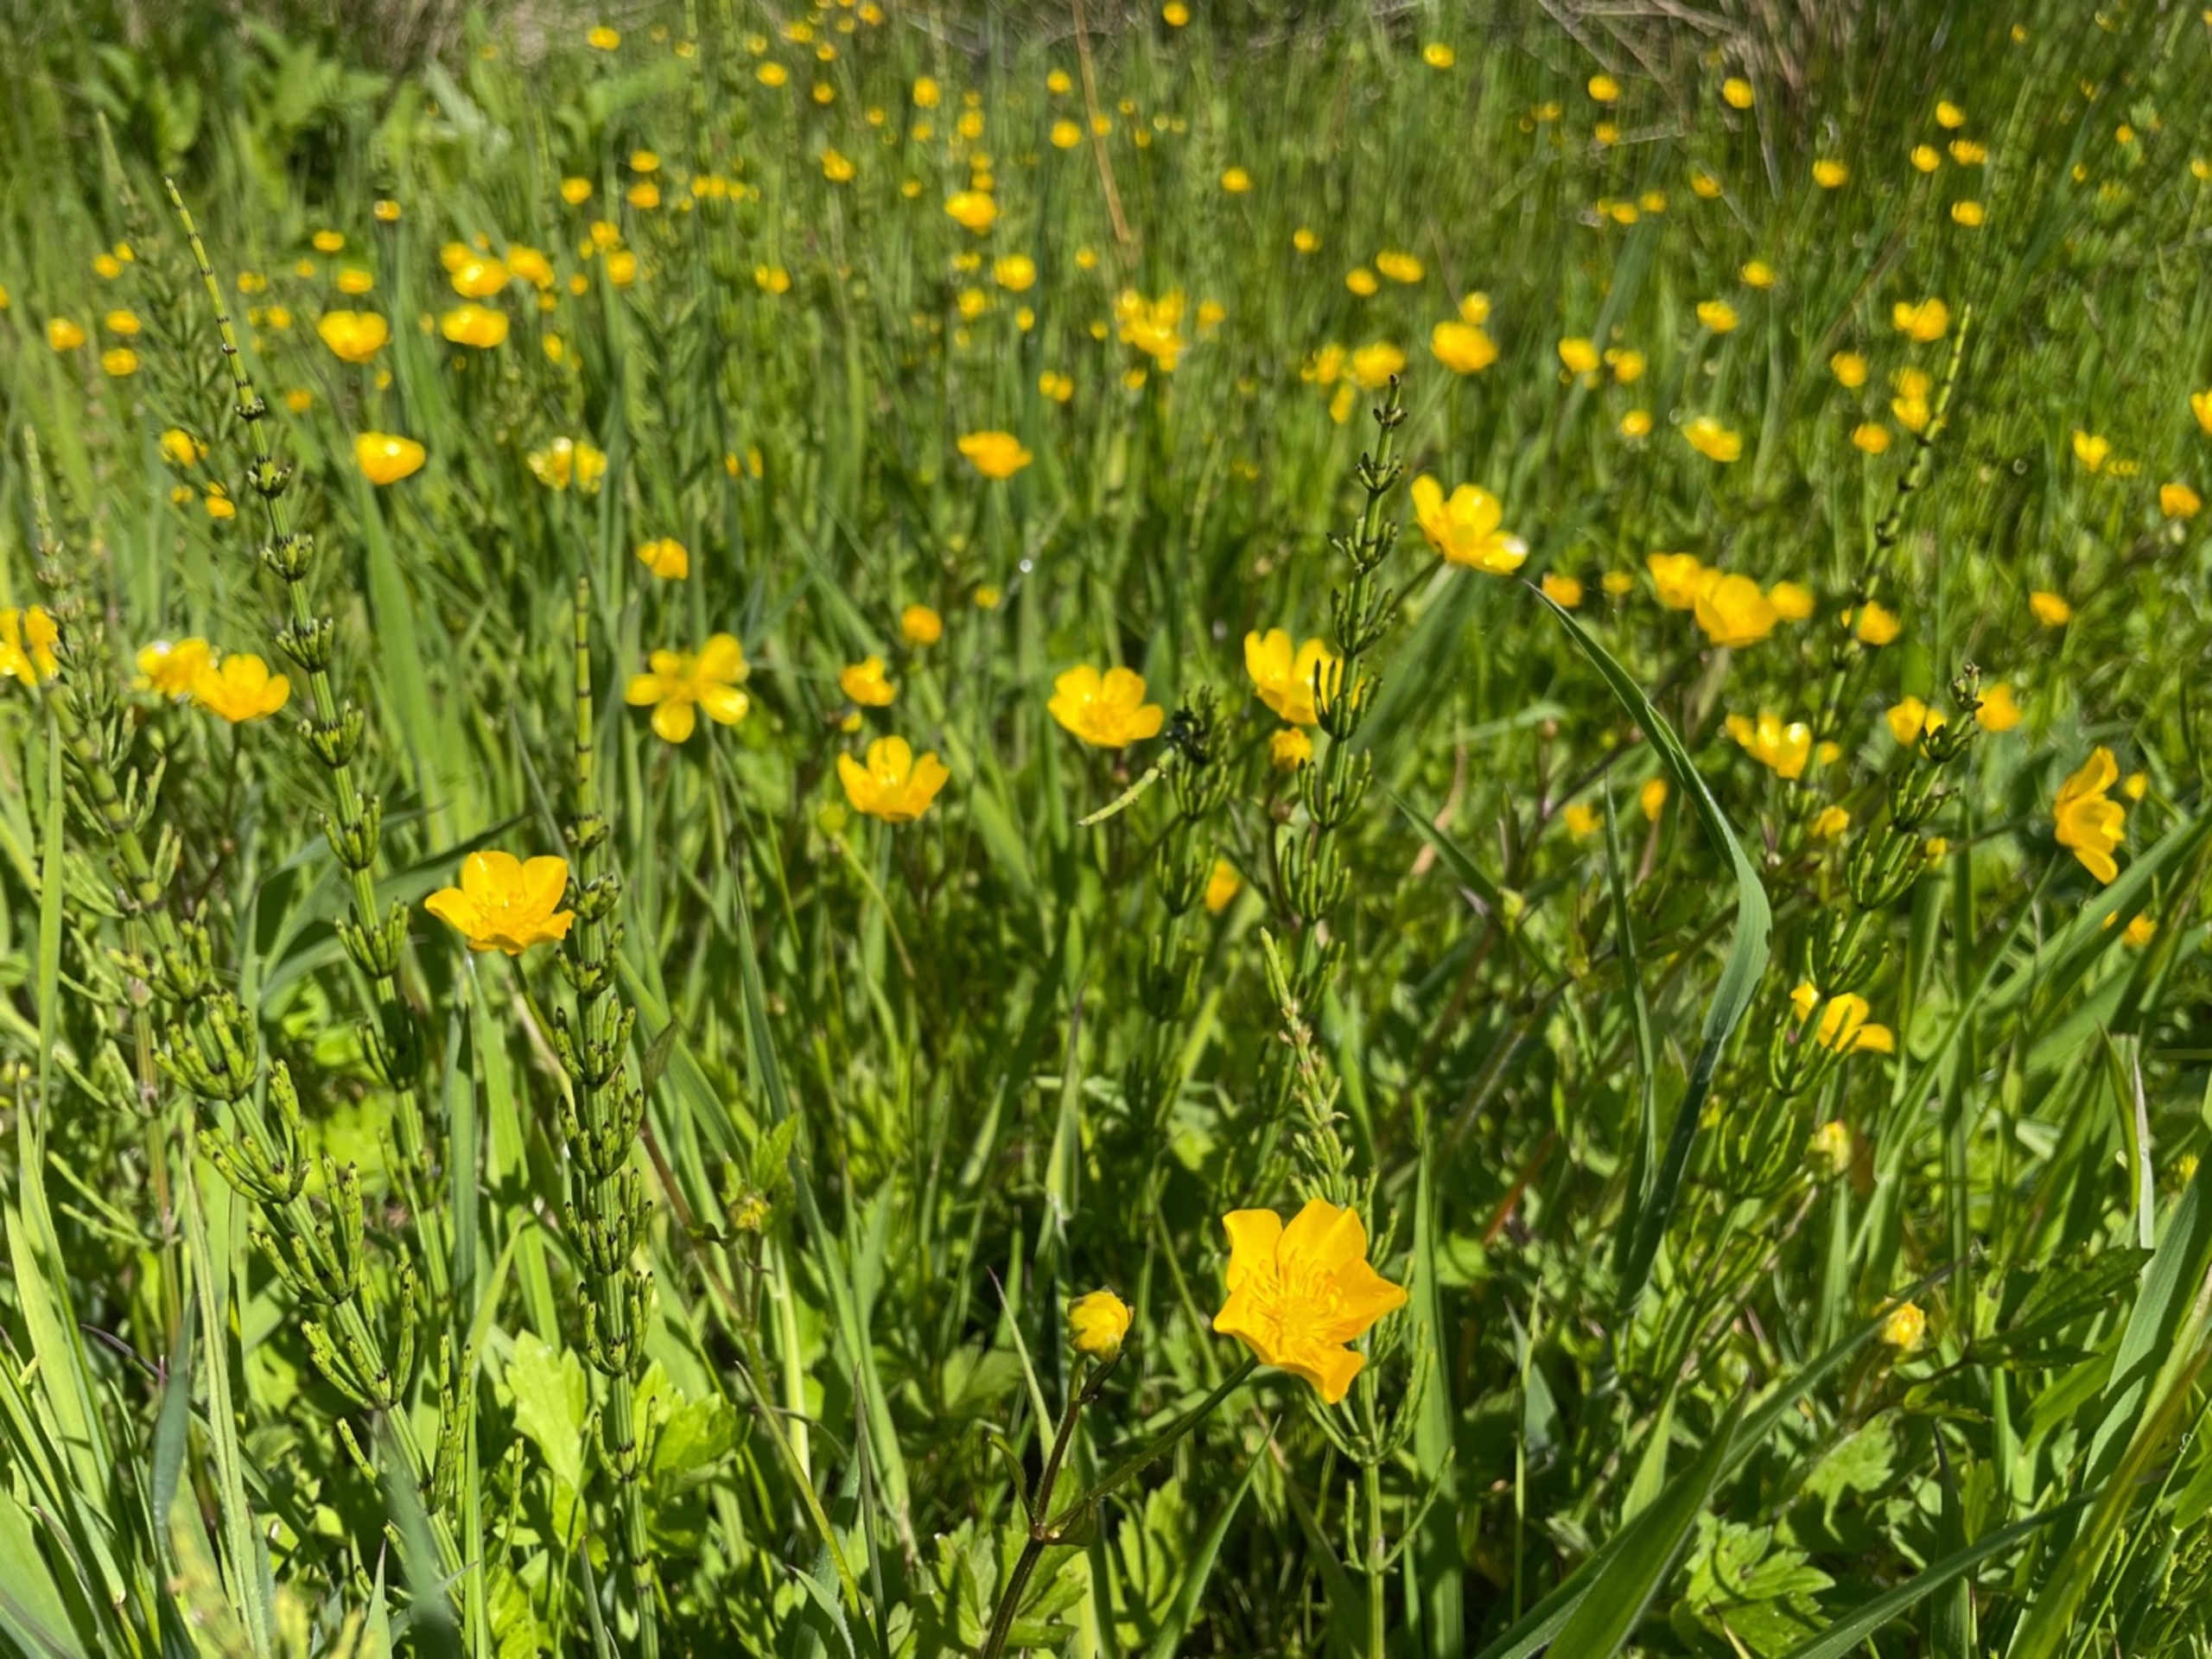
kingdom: Plantae
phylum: Tracheophyta
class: Magnoliopsida
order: Ranunculales
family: Ranunculaceae
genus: Ranunculus
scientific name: Ranunculus repens
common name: Lav ranunkel
